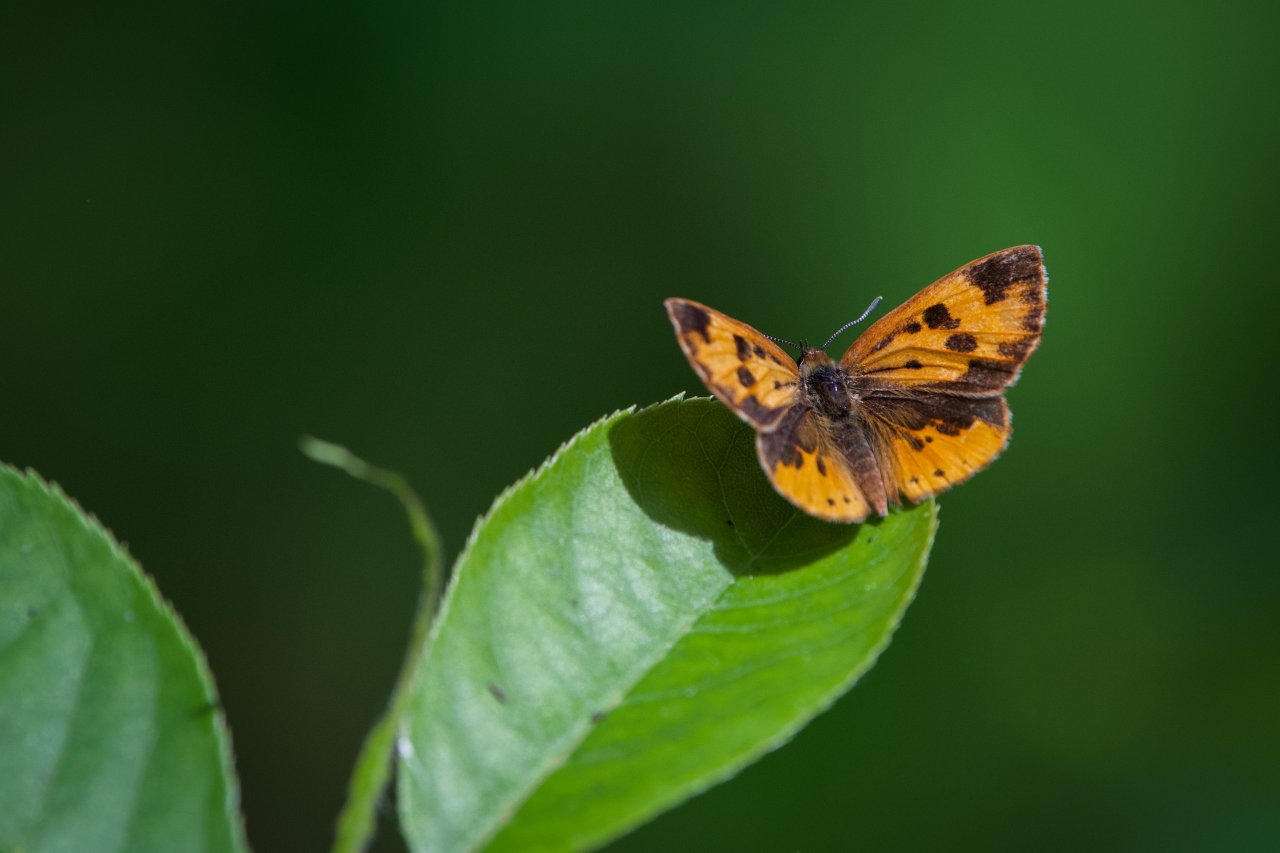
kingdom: Animalia
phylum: Arthropoda
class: Insecta
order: Lepidoptera
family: Lycaenidae
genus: Feniseca
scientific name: Feniseca tarquinius
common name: Harvester
